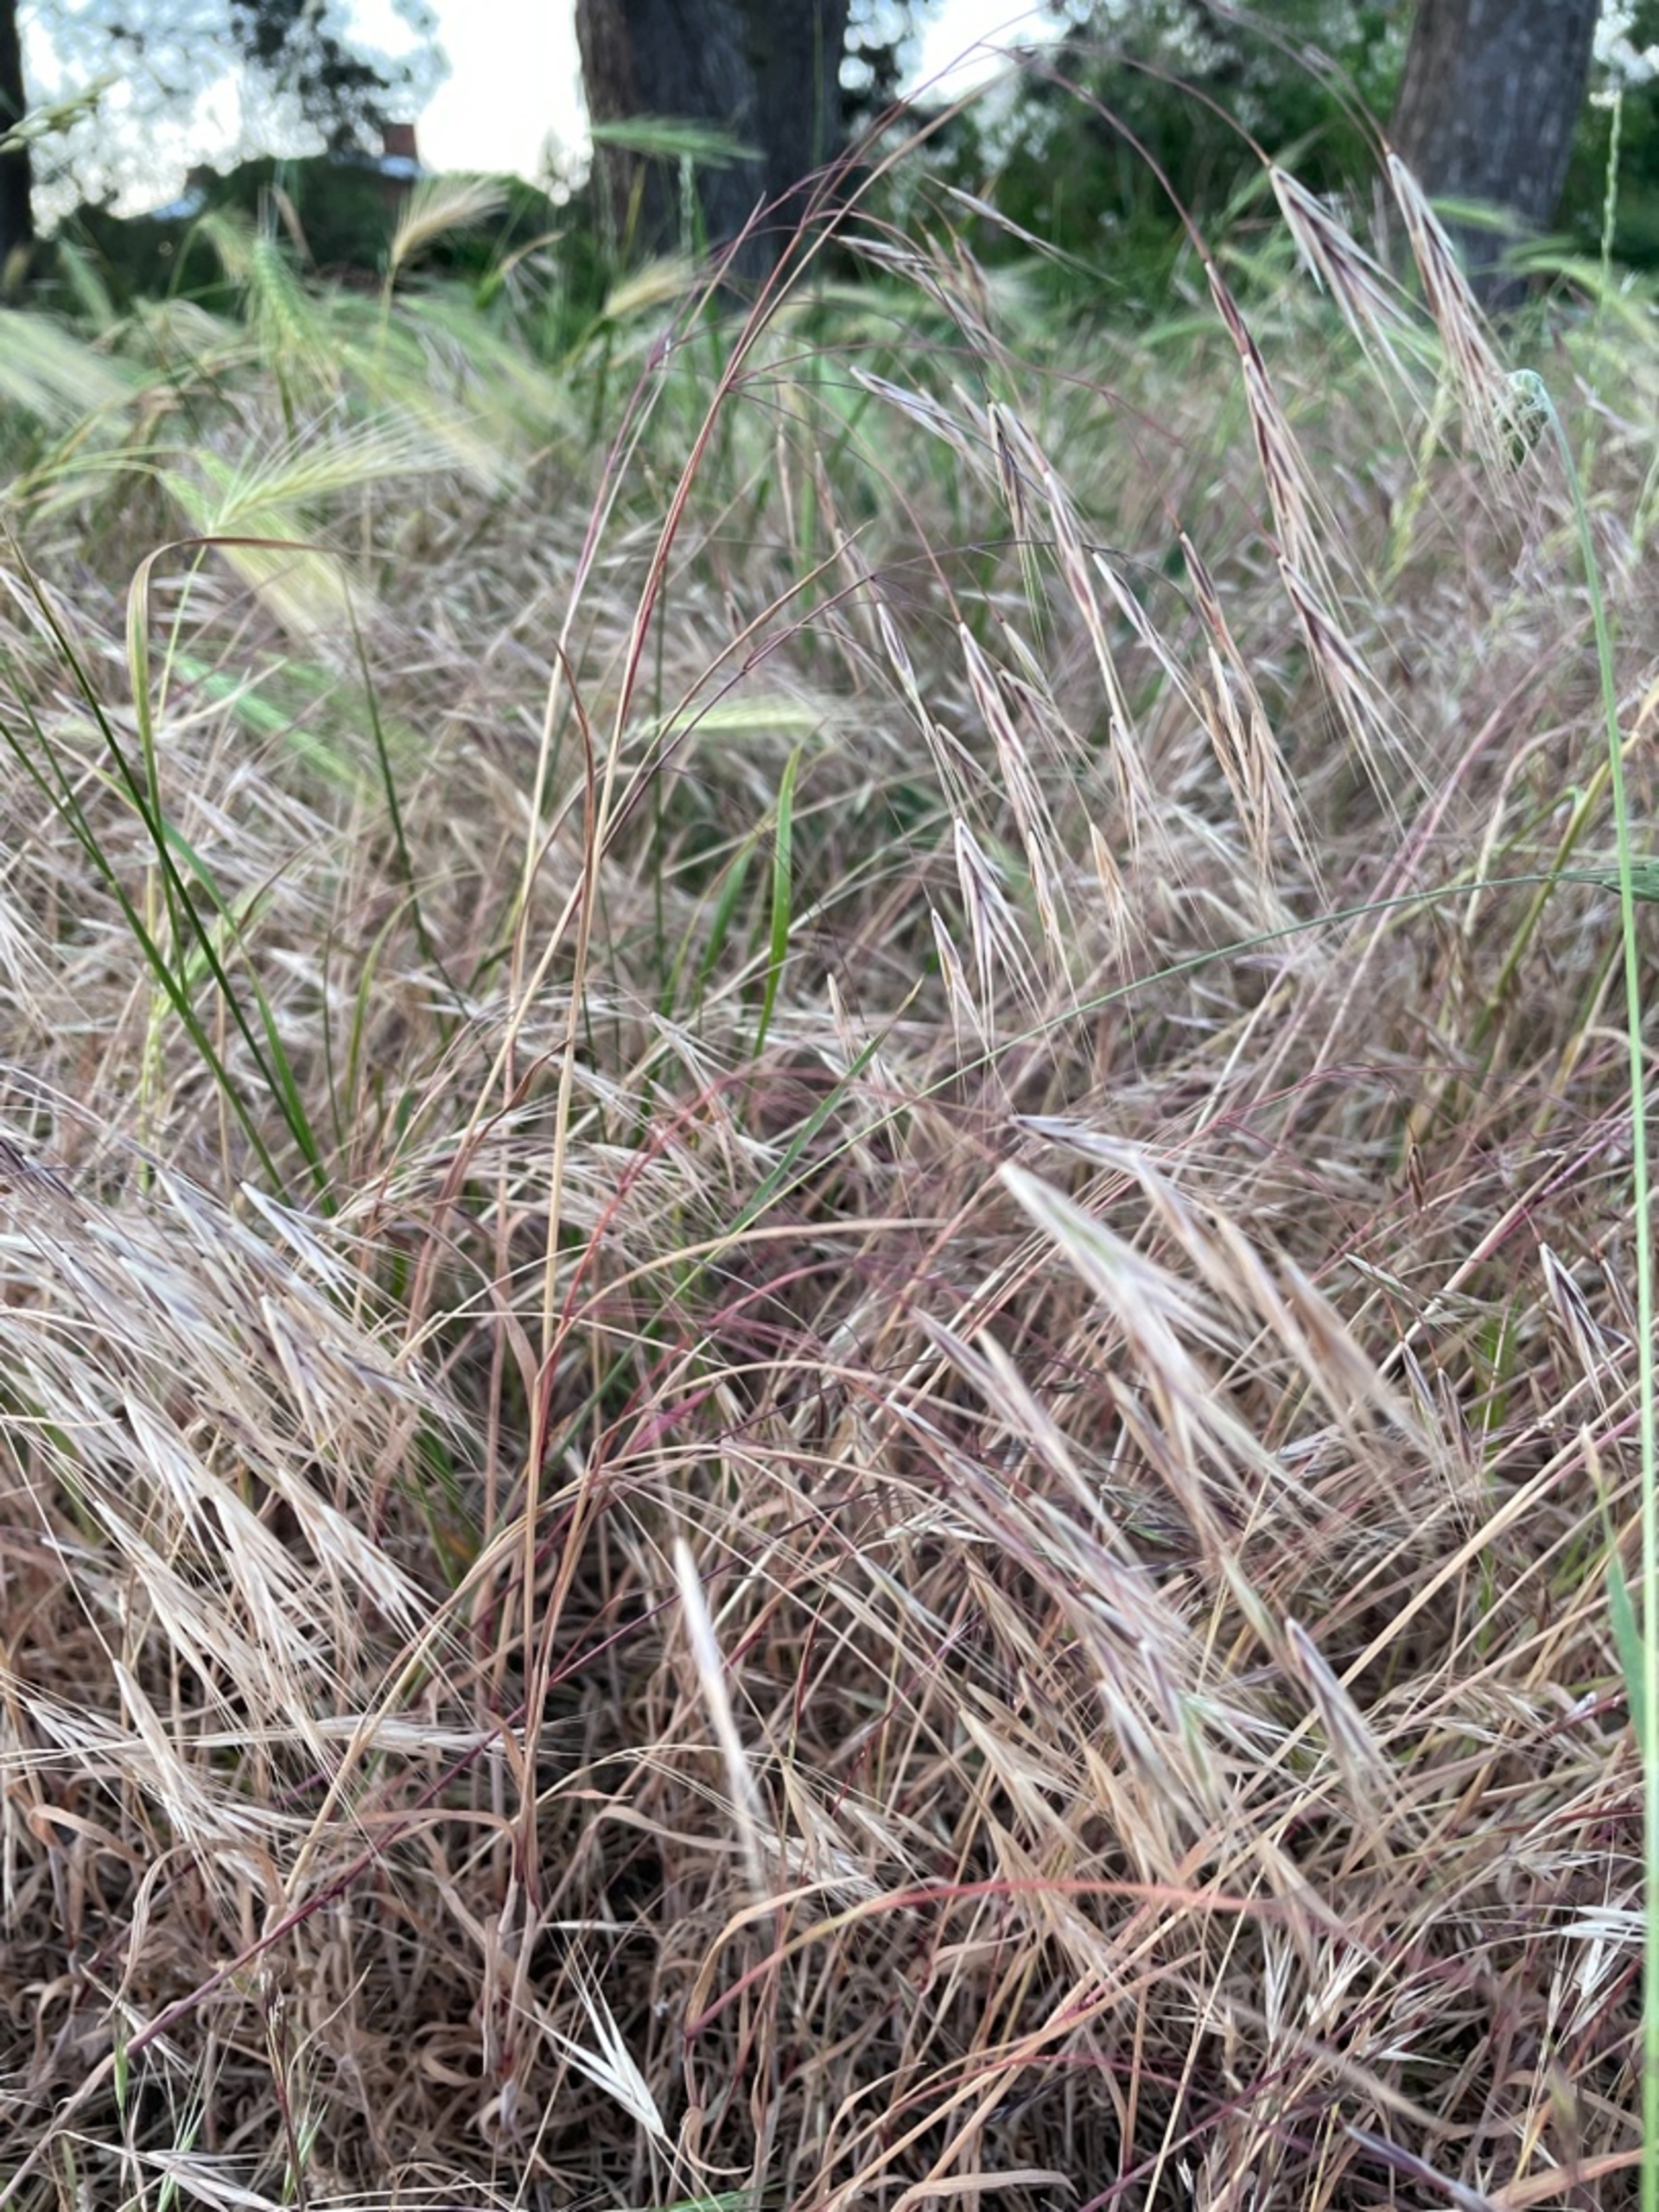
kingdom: Plantae
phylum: Tracheophyta
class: Liliopsida
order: Poales
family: Poaceae
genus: Bromus
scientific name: Bromus sterilis
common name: Gold hejre
